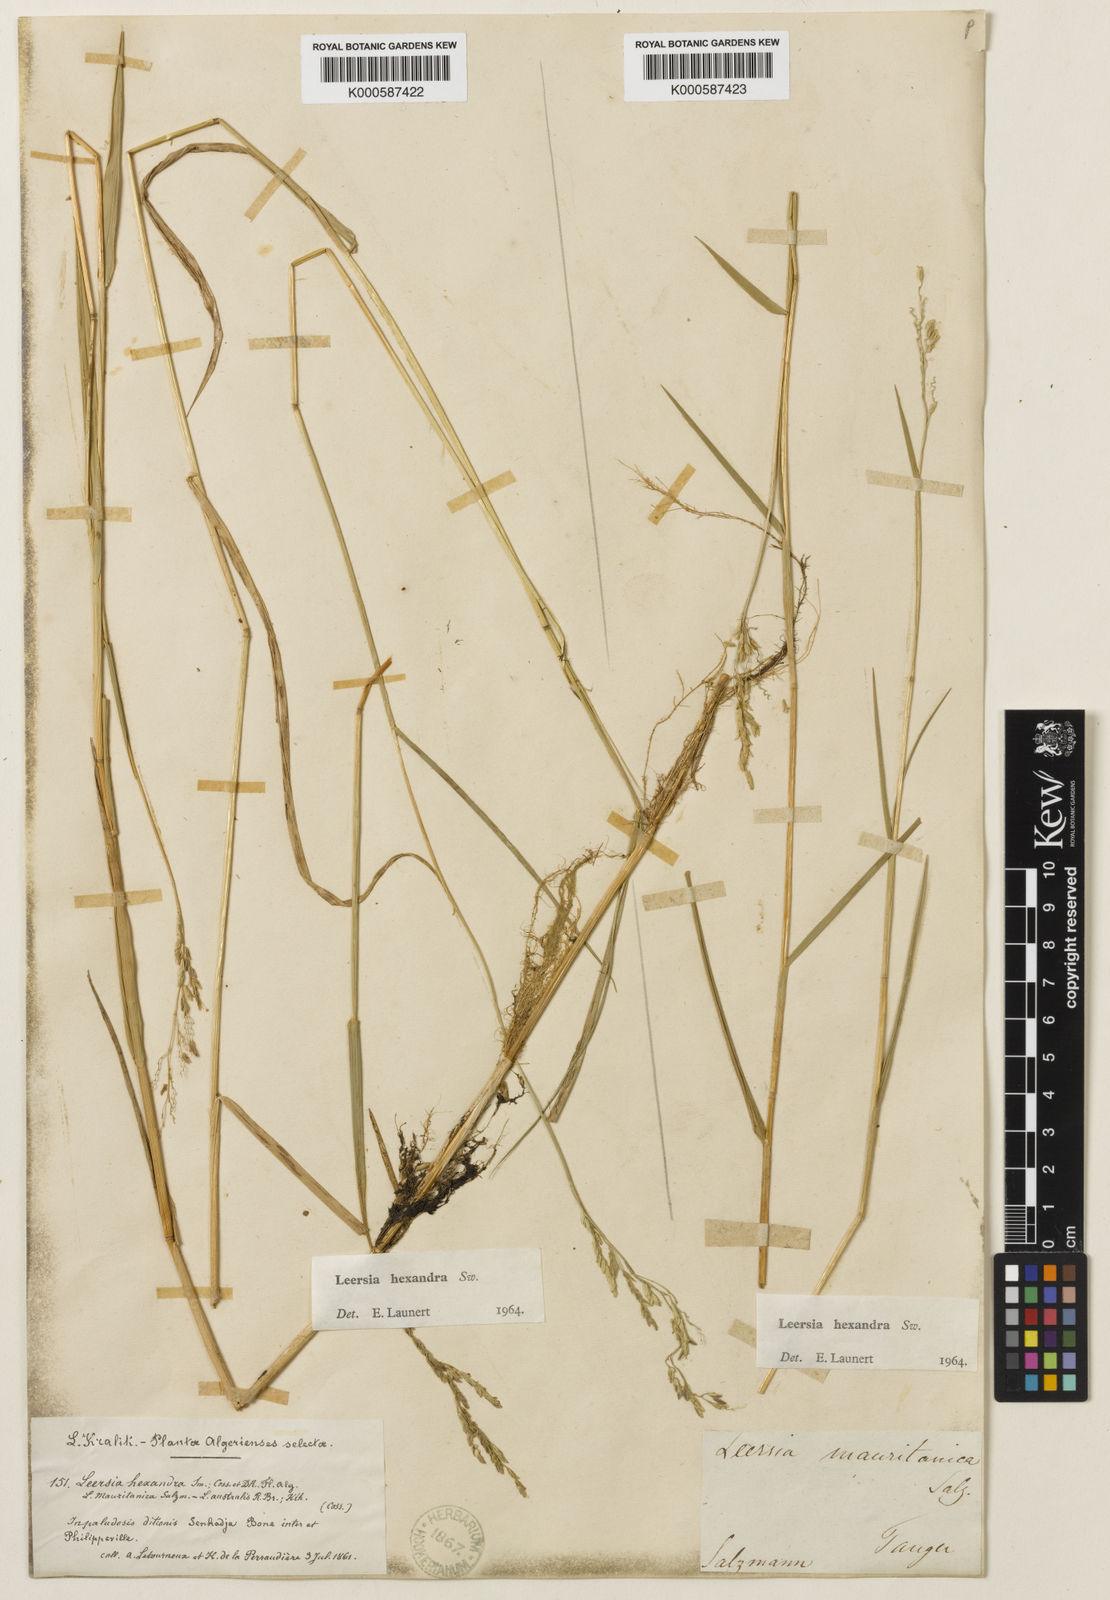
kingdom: Plantae
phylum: Tracheophyta
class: Liliopsida
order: Poales
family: Poaceae
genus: Leersia
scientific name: Leersia hexandra
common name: Southern cut grass
